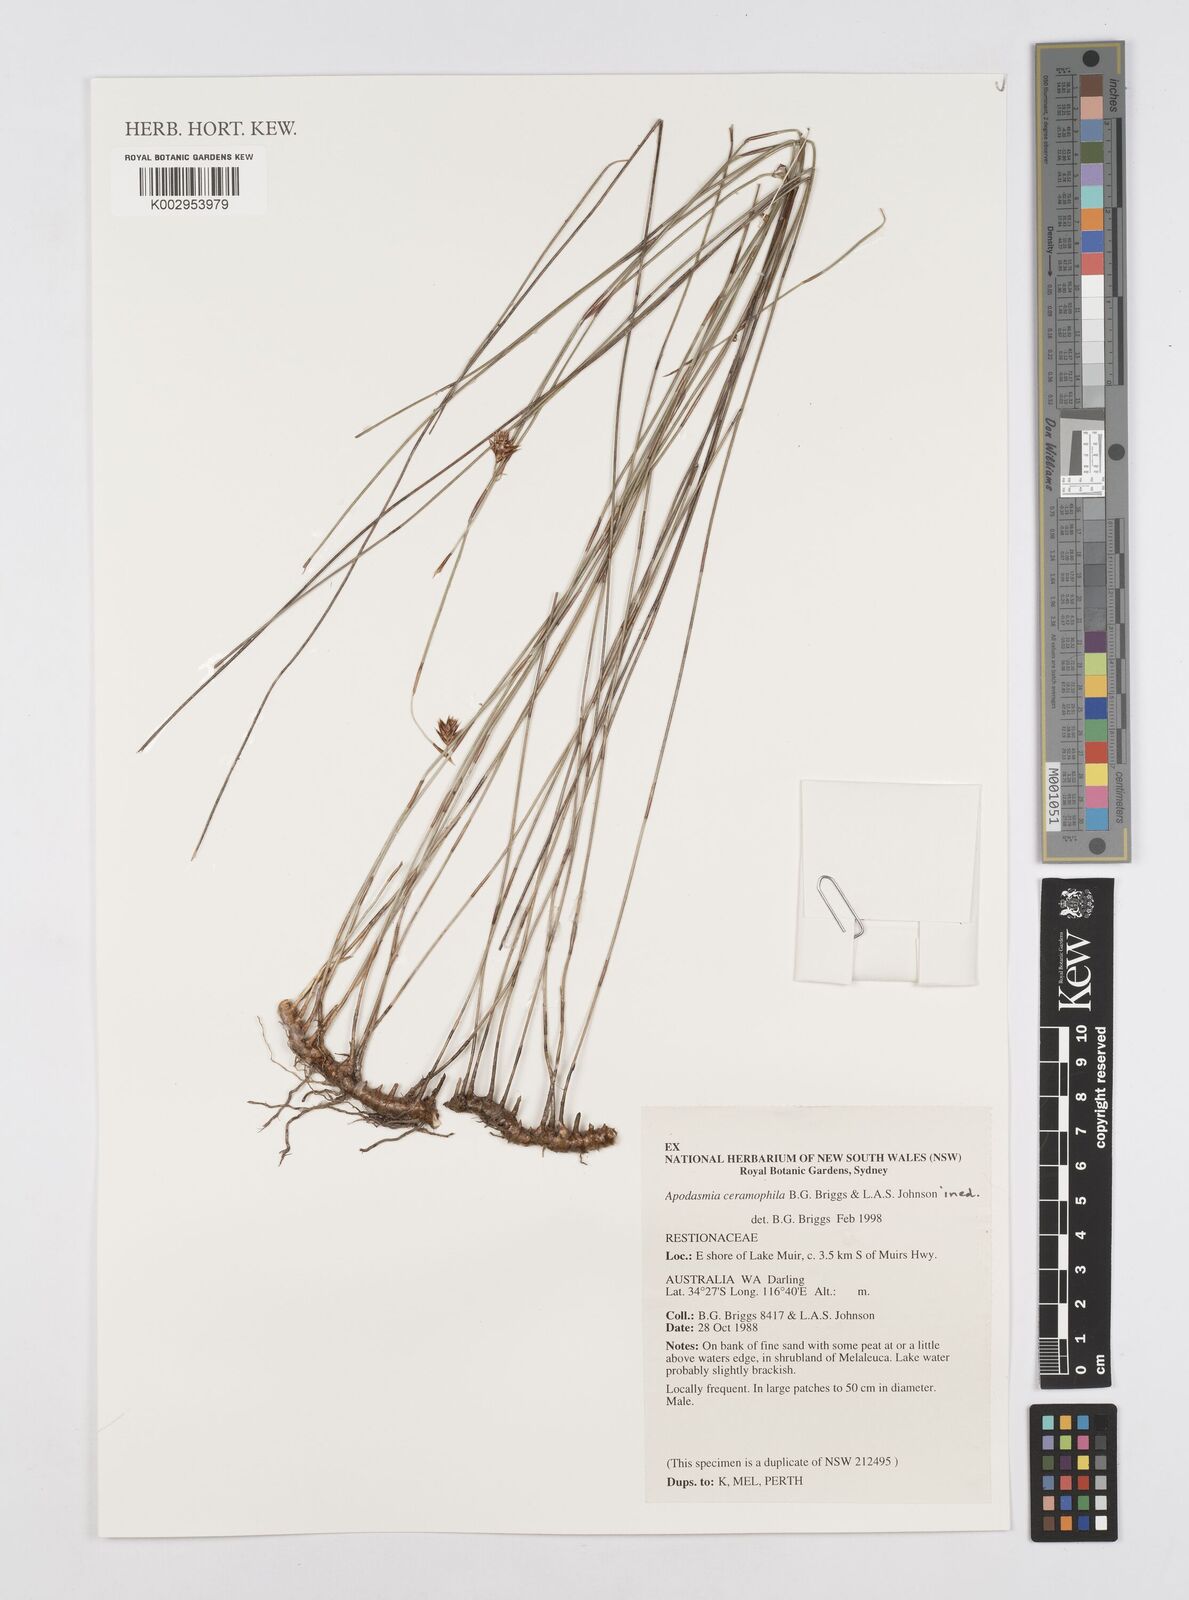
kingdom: Plantae
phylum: Tracheophyta
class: Liliopsida
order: Poales
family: Restionaceae
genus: Apodasmia
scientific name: Apodasmia ceramophila
